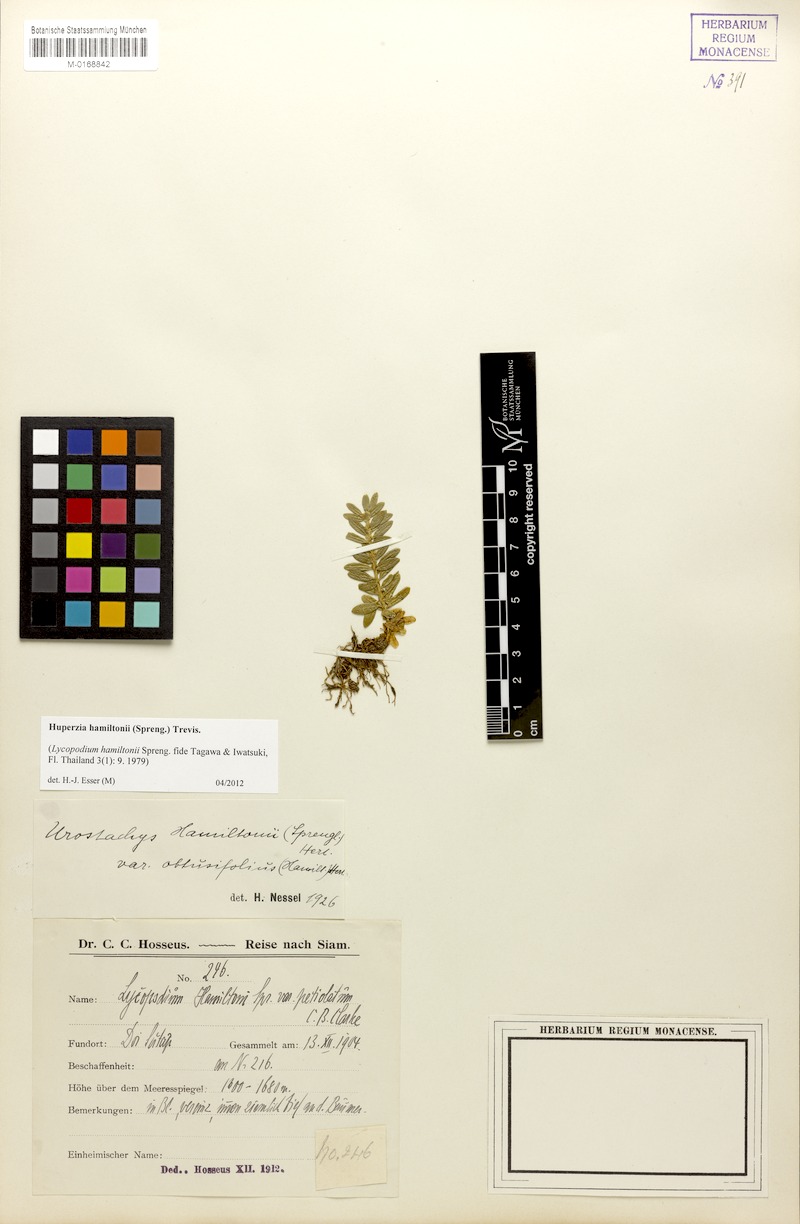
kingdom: Plantae
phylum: Tracheophyta
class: Lycopodiopsida
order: Lycopodiales
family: Lycopodiaceae
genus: Phlegmariurus
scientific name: Phlegmariurus hamiltonii
